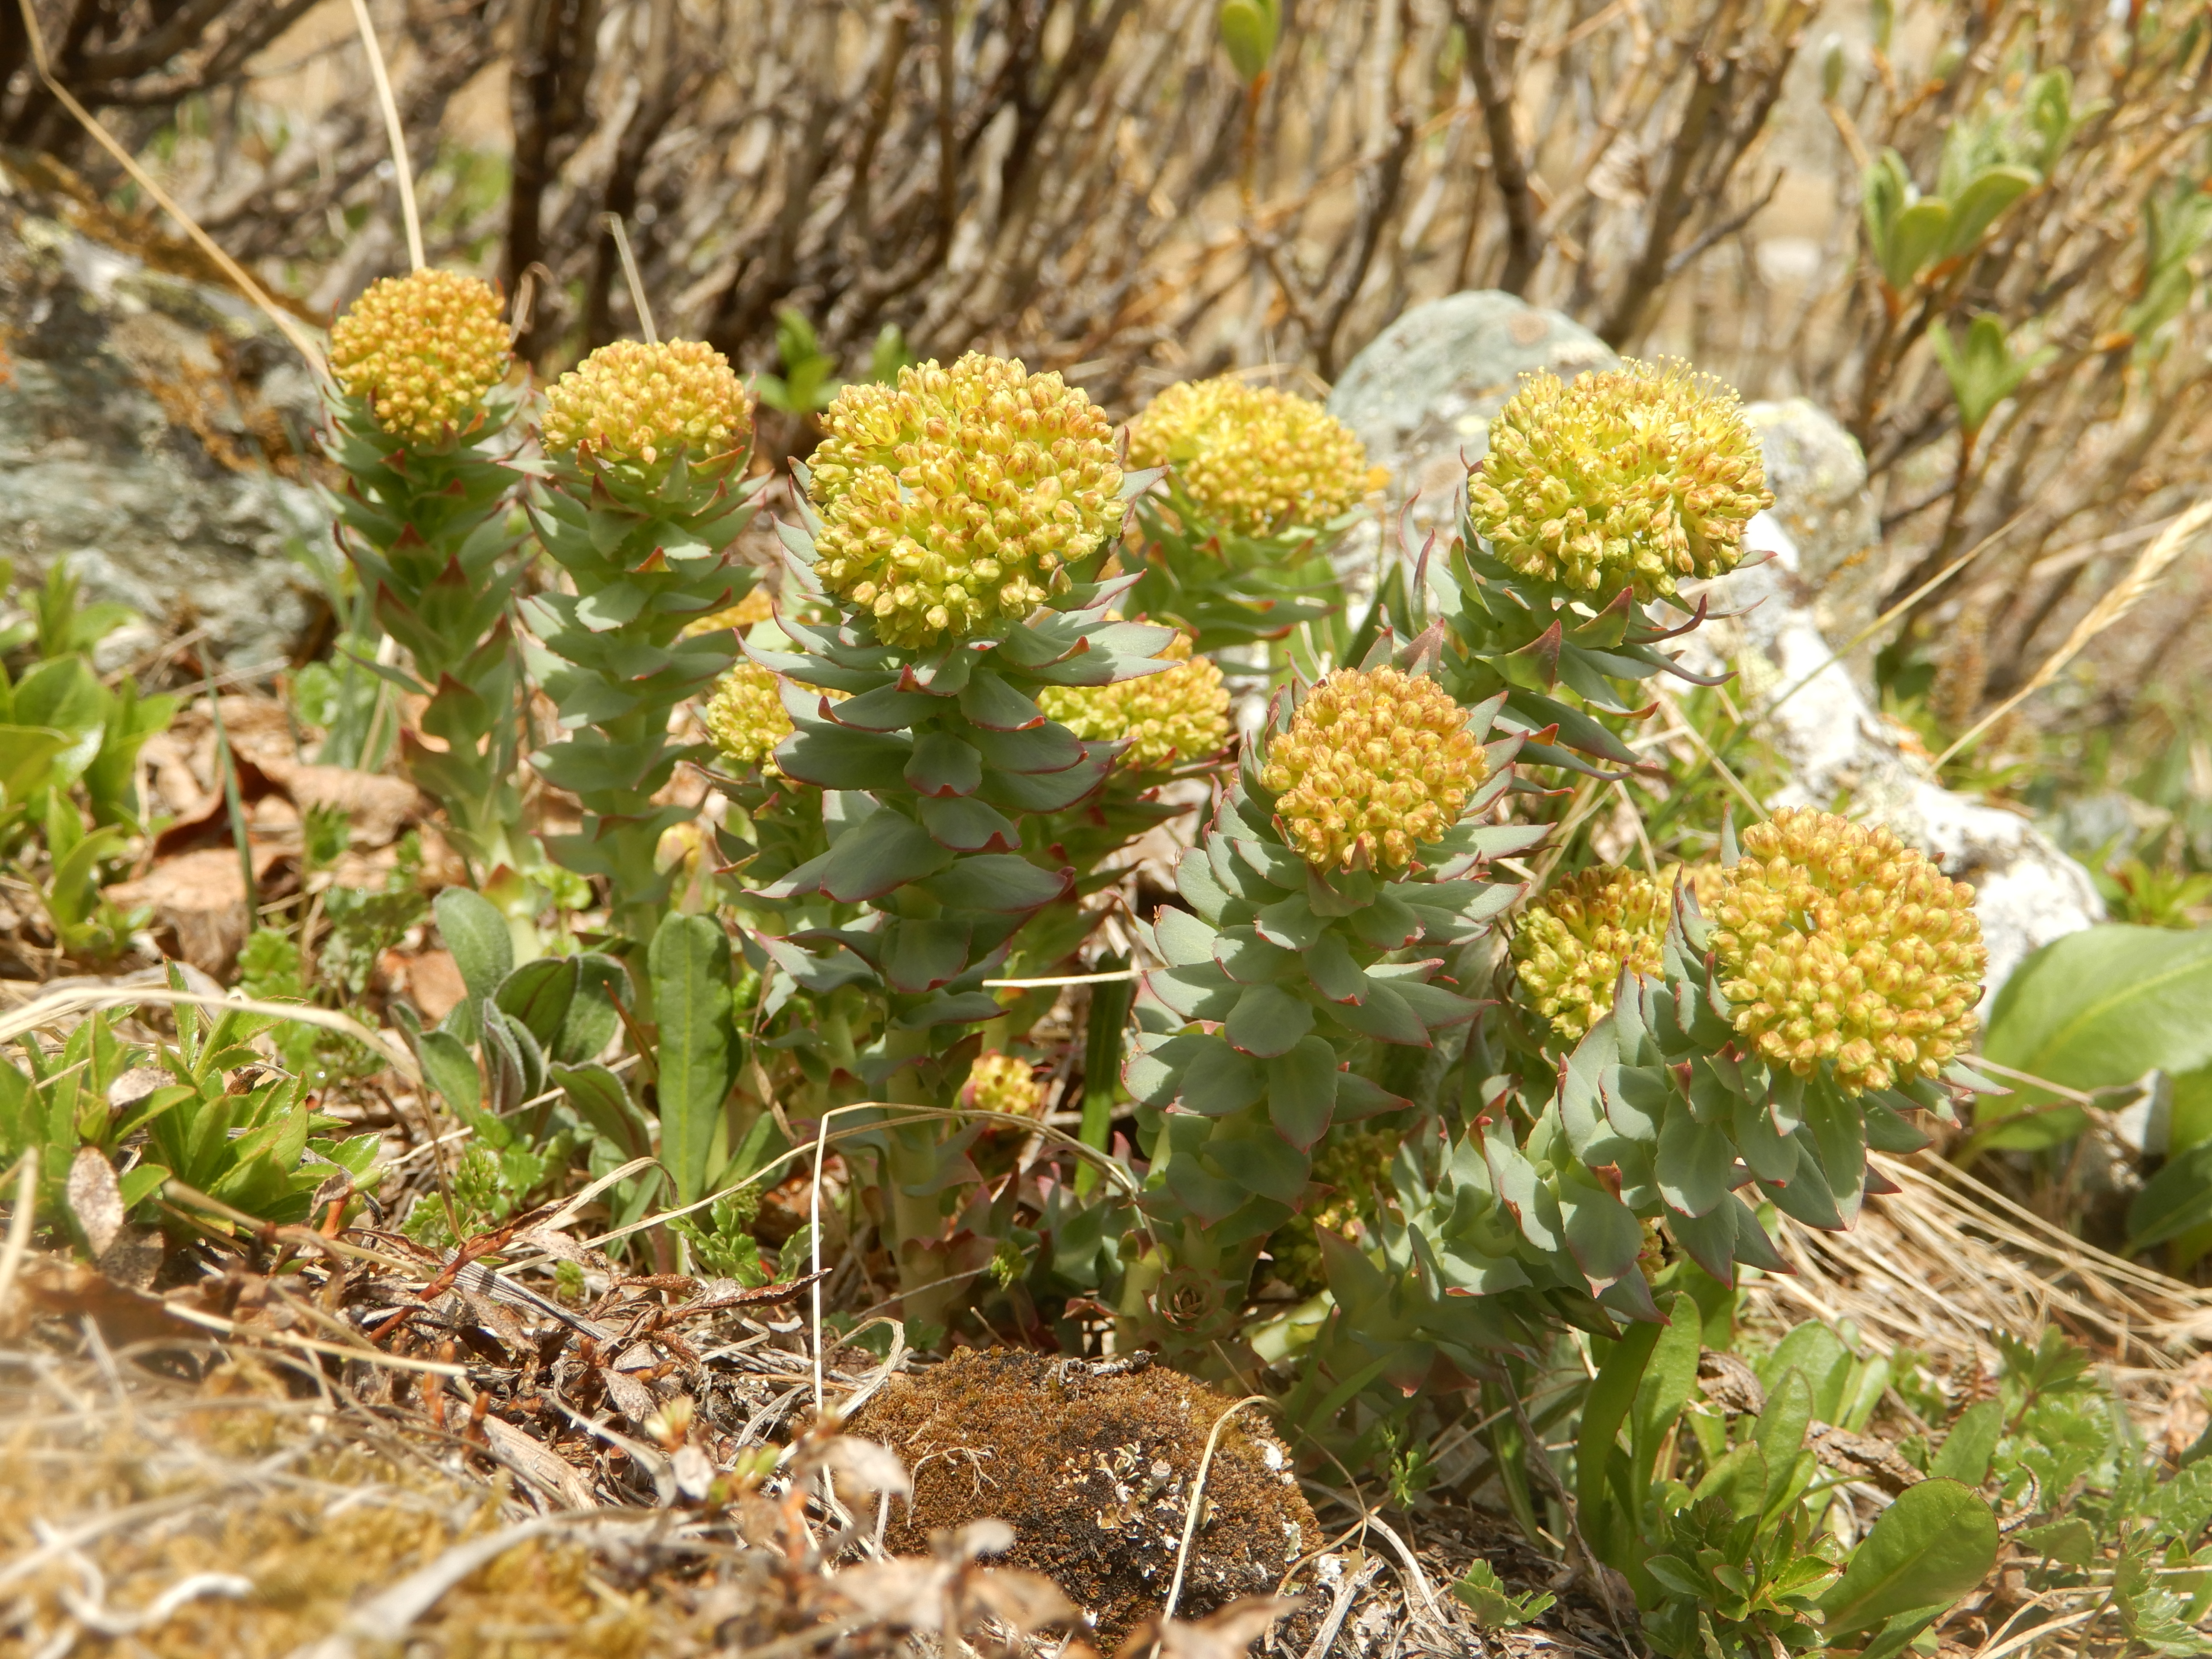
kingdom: Plantae
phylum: Tracheophyta
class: Magnoliopsida
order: Saxifragales
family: Crassulaceae
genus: Rhodiola
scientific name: Rhodiola rosea
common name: Roseroot
